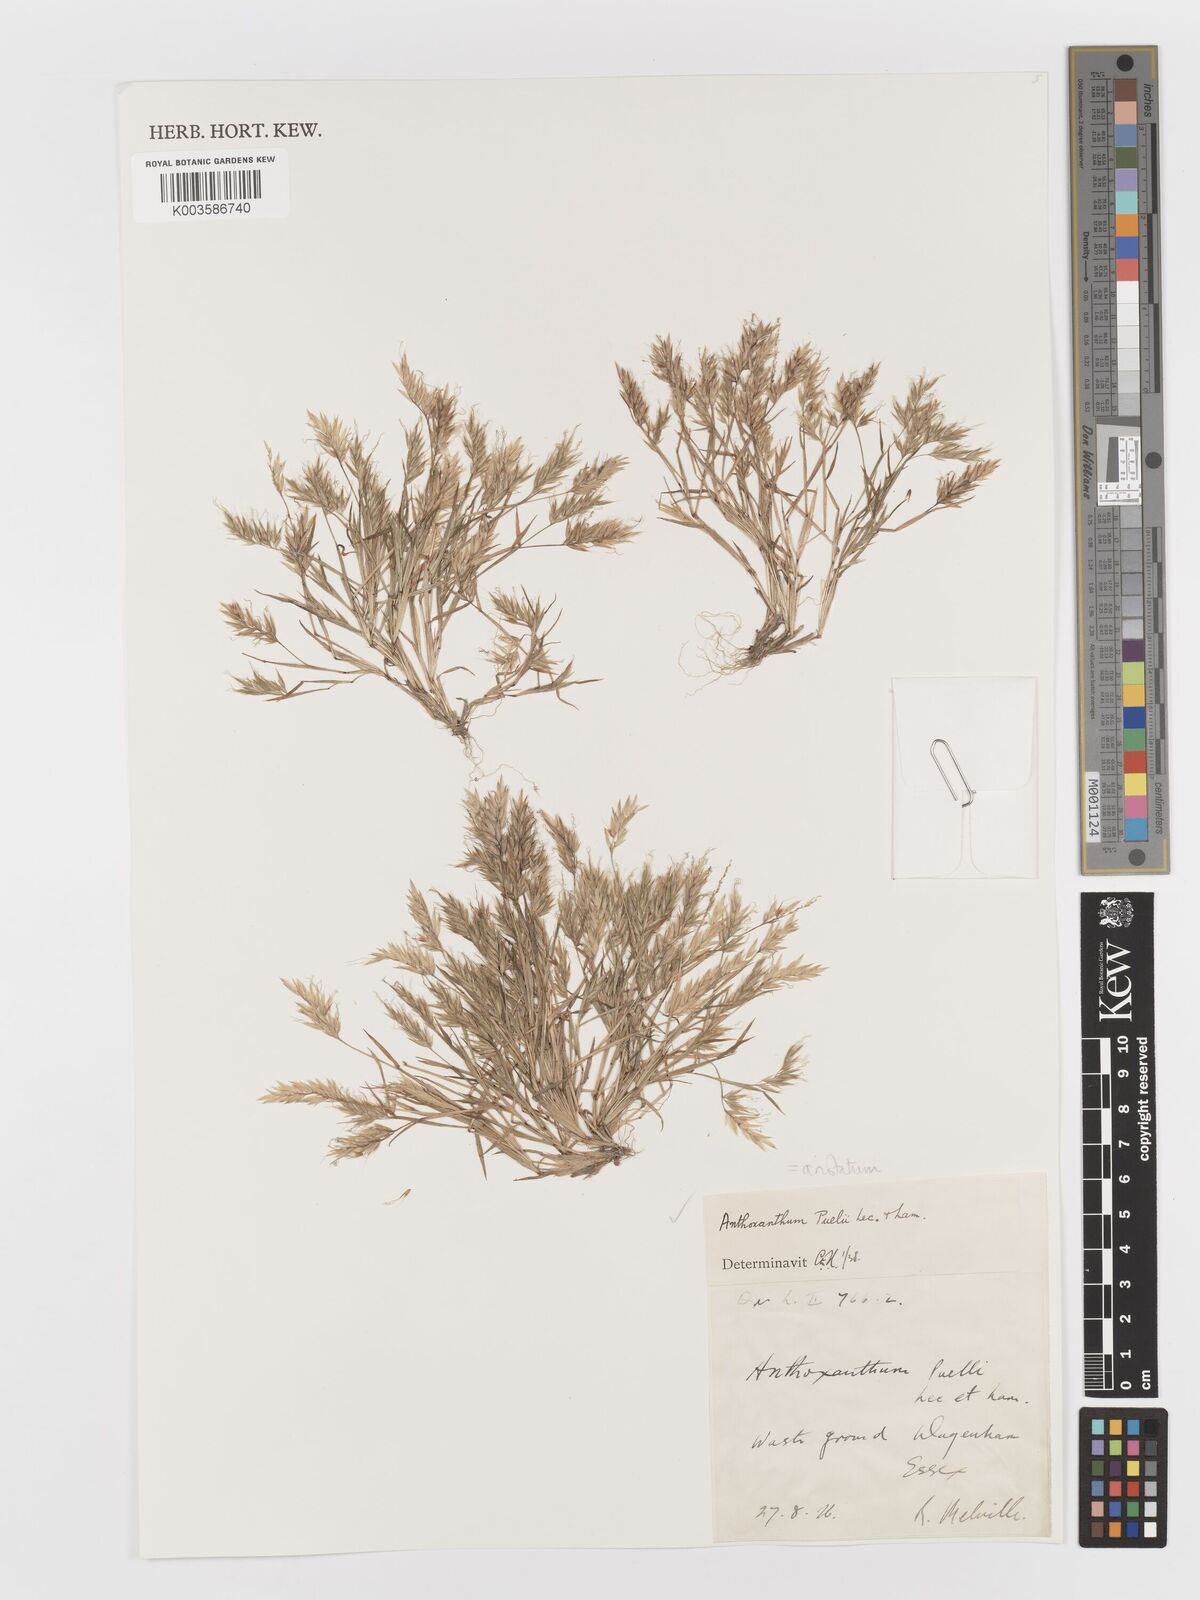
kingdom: Plantae
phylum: Tracheophyta
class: Liliopsida
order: Poales
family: Poaceae
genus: Anthoxanthum
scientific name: Anthoxanthum aristatum
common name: Annual vernal-grass
